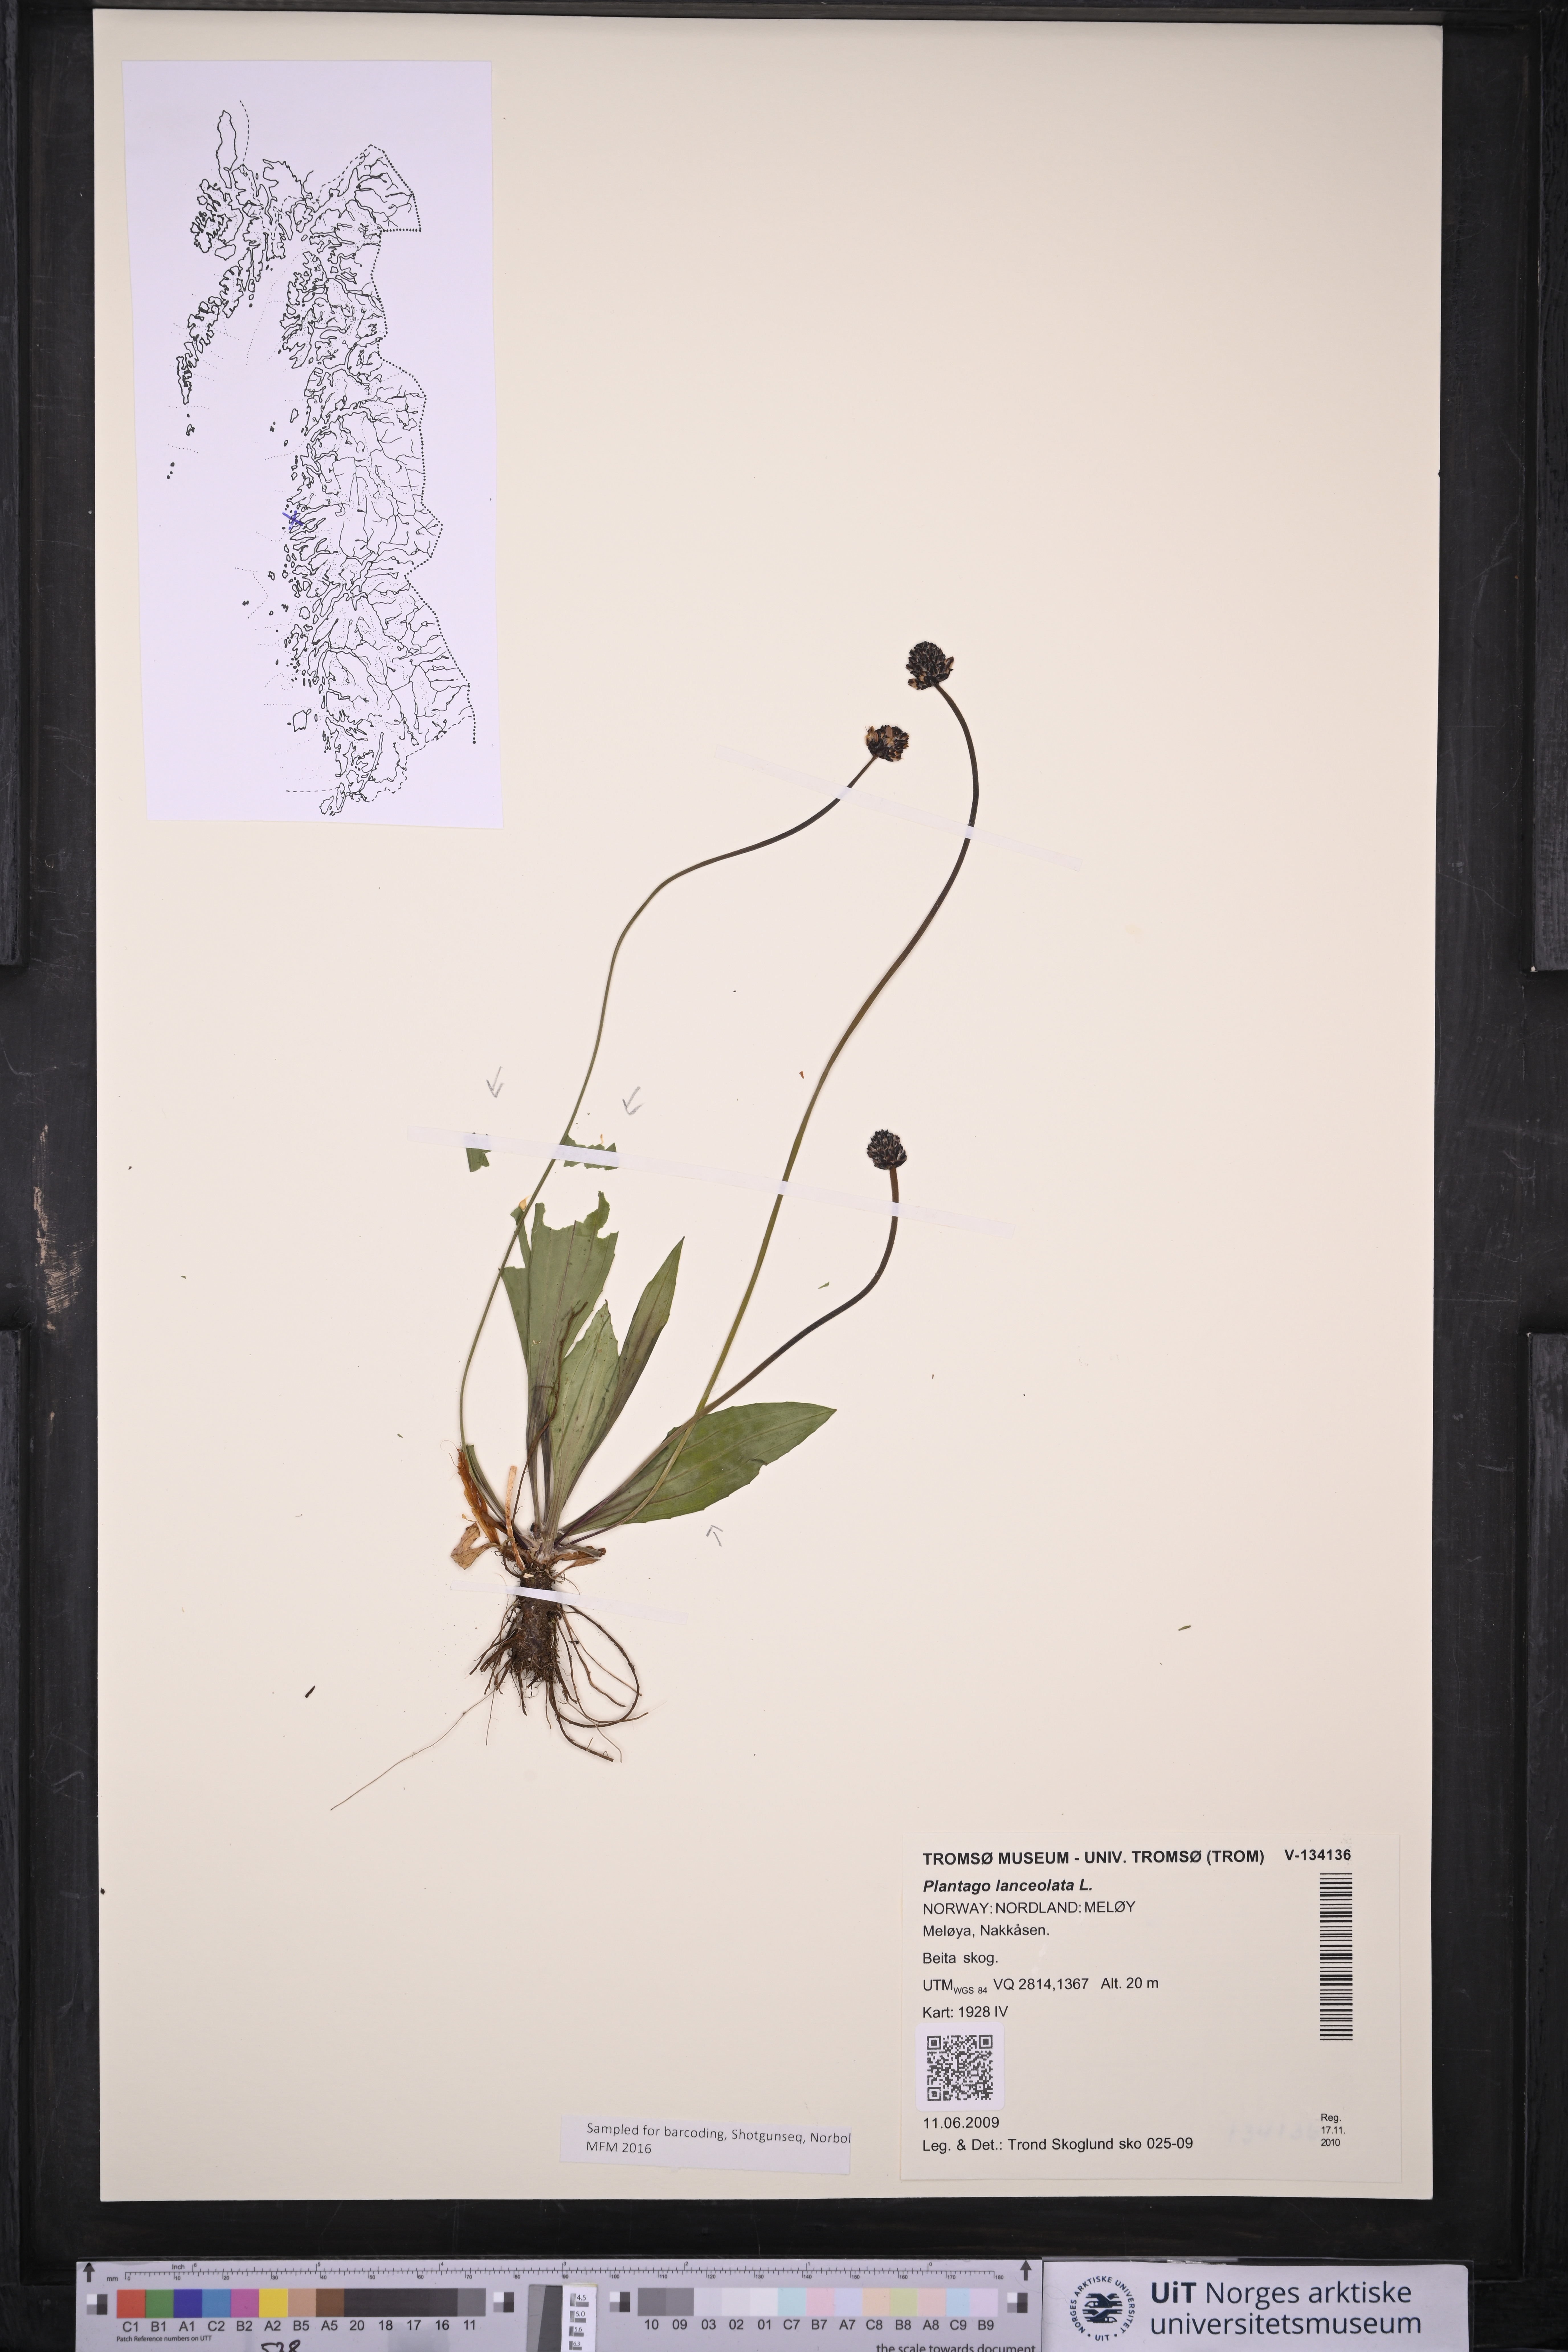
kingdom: Plantae
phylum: Tracheophyta
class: Magnoliopsida
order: Lamiales
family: Plantaginaceae
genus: Plantago
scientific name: Plantago lanceolata
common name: Ribwort plantain
